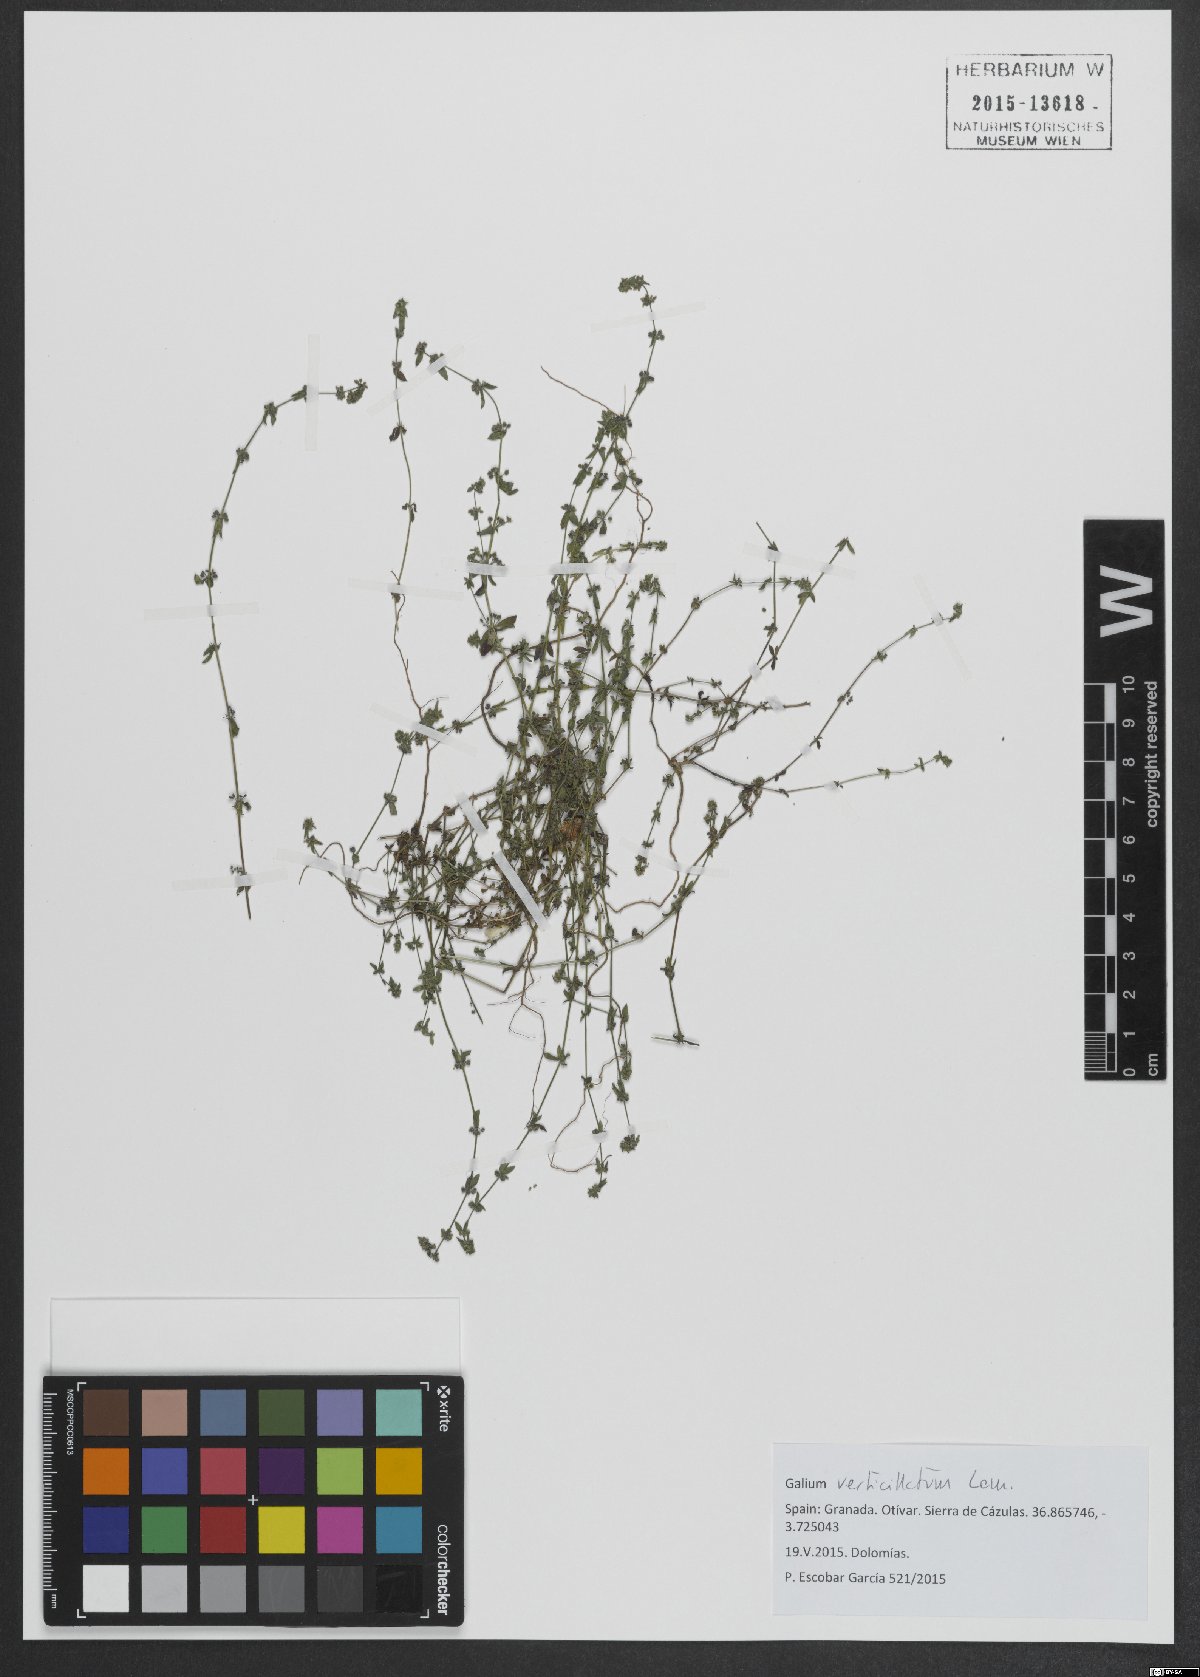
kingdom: Plantae
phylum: Tracheophyta
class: Magnoliopsida
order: Gentianales
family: Rubiaceae
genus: Galium
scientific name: Galium verticillatum
